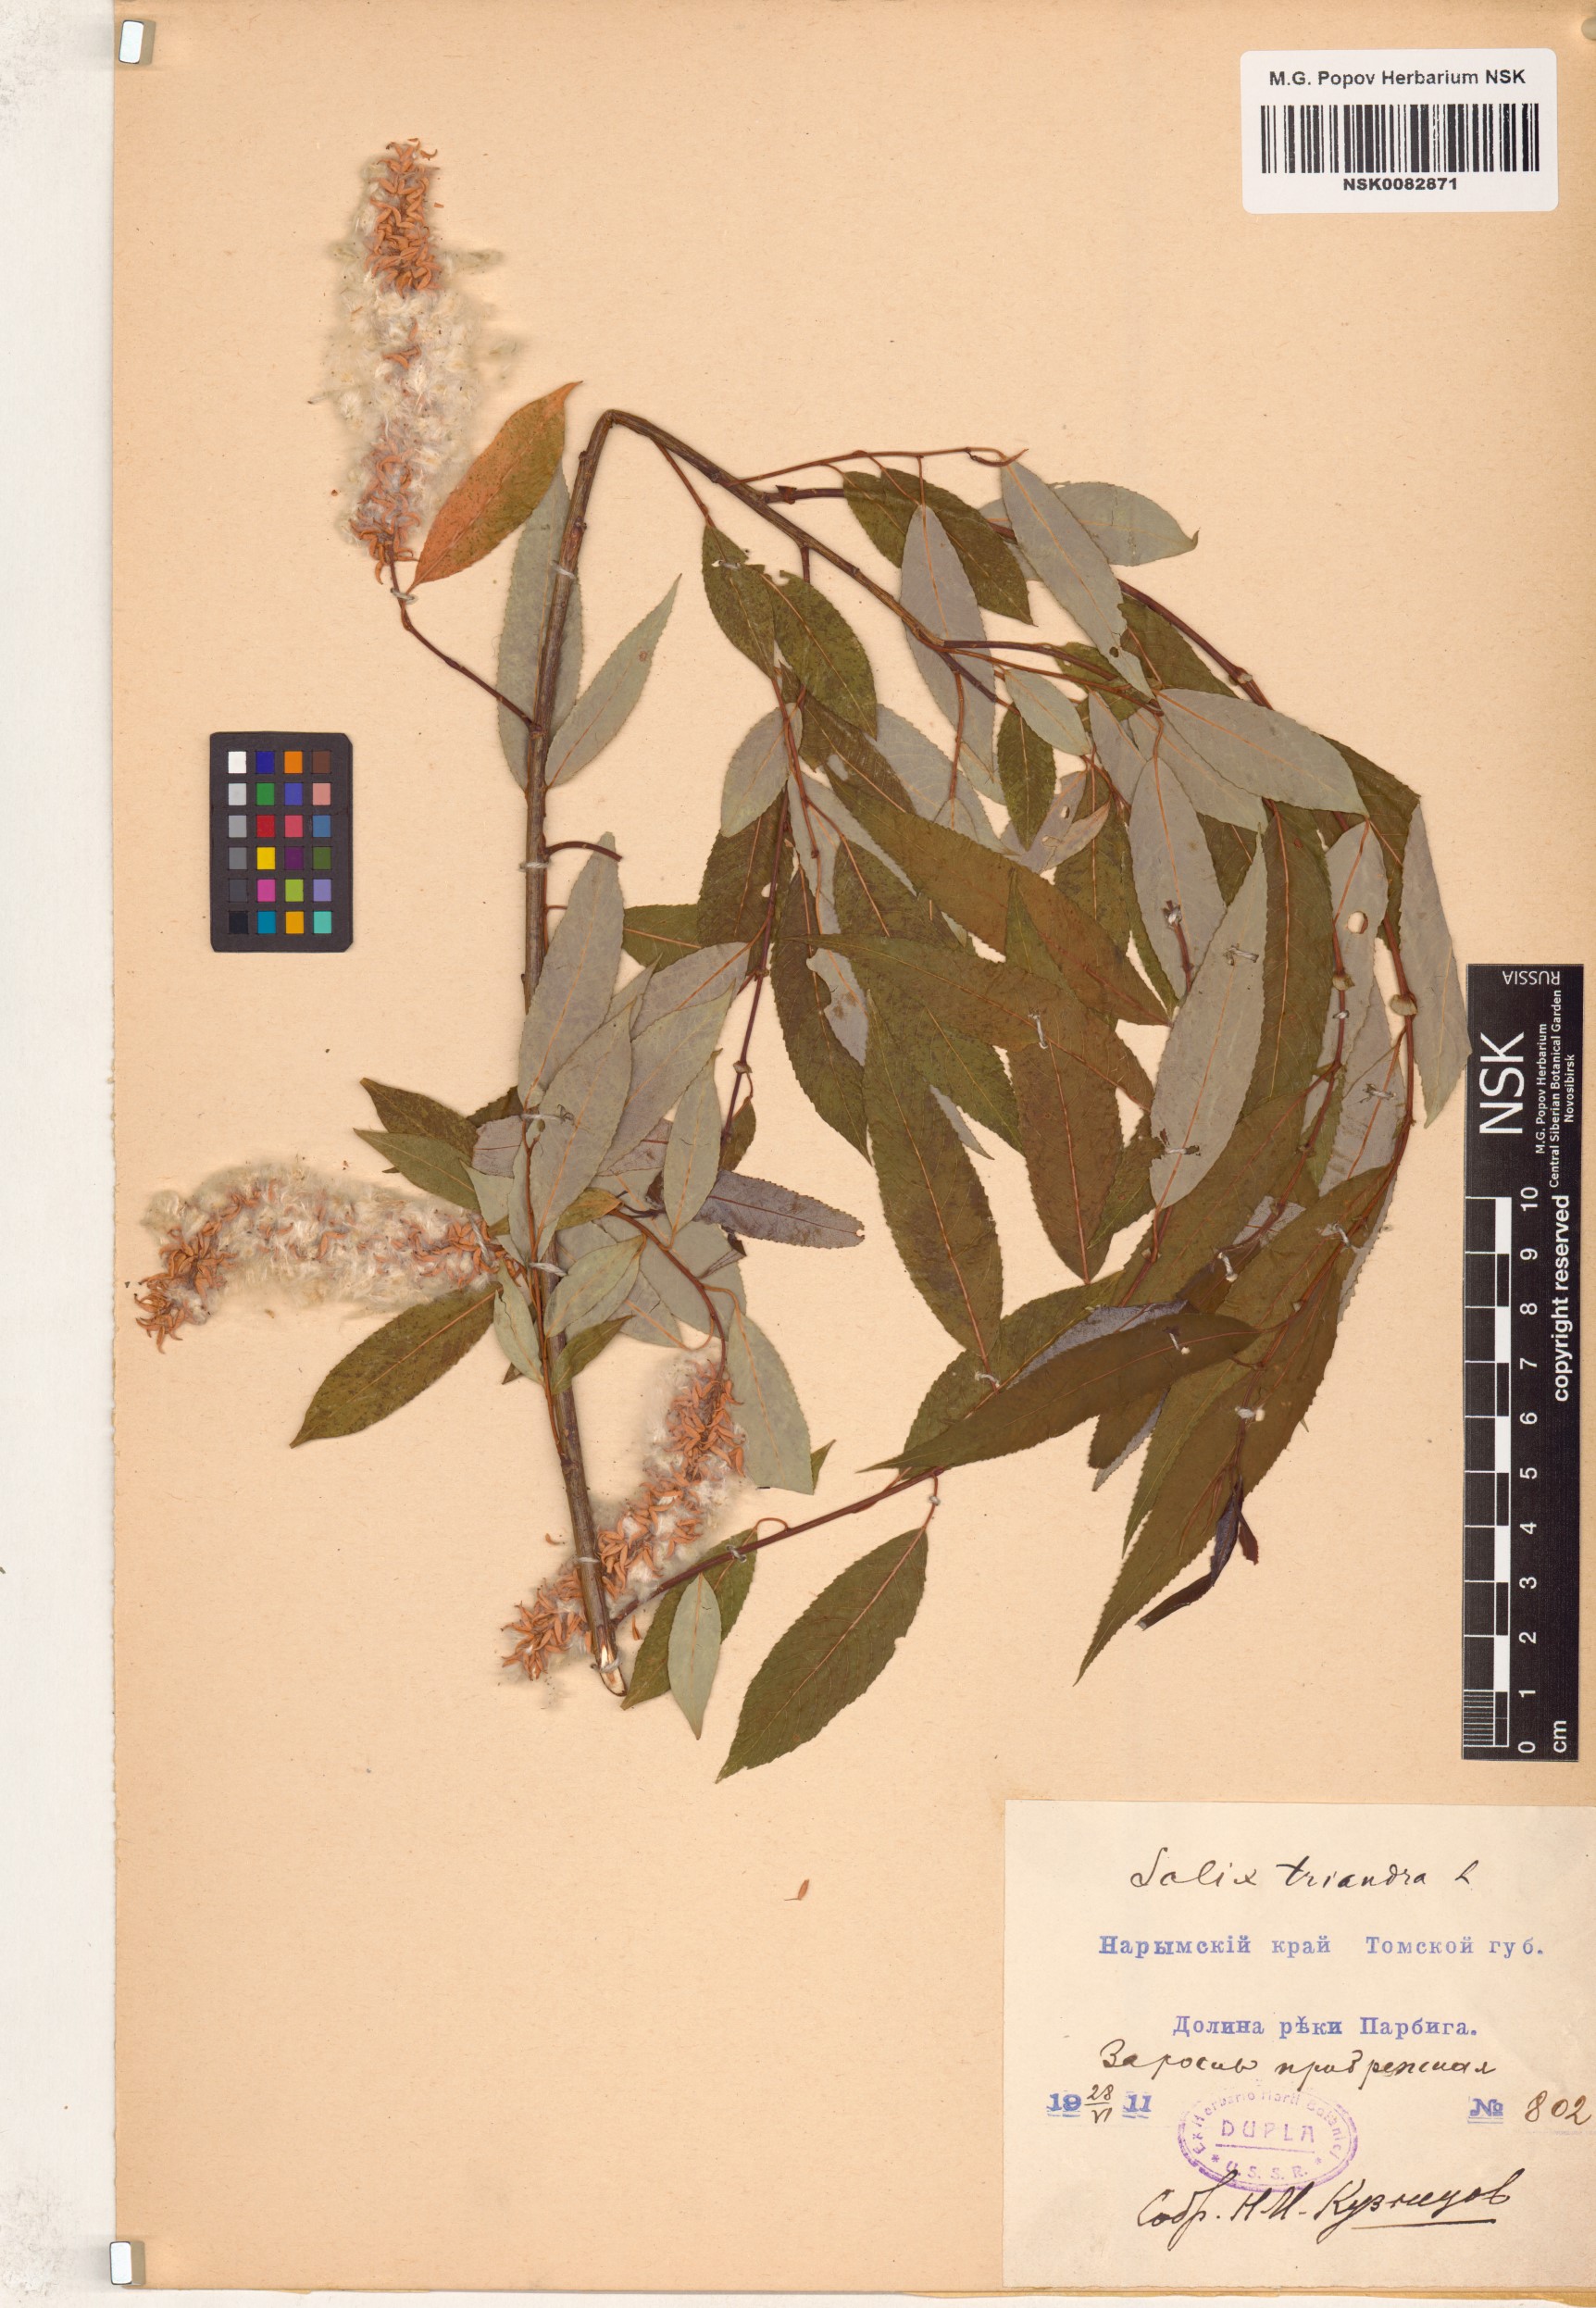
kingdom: Plantae
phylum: Tracheophyta
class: Magnoliopsida
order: Malpighiales
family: Salicaceae
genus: Salix
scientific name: Salix triandra
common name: Almond willow
